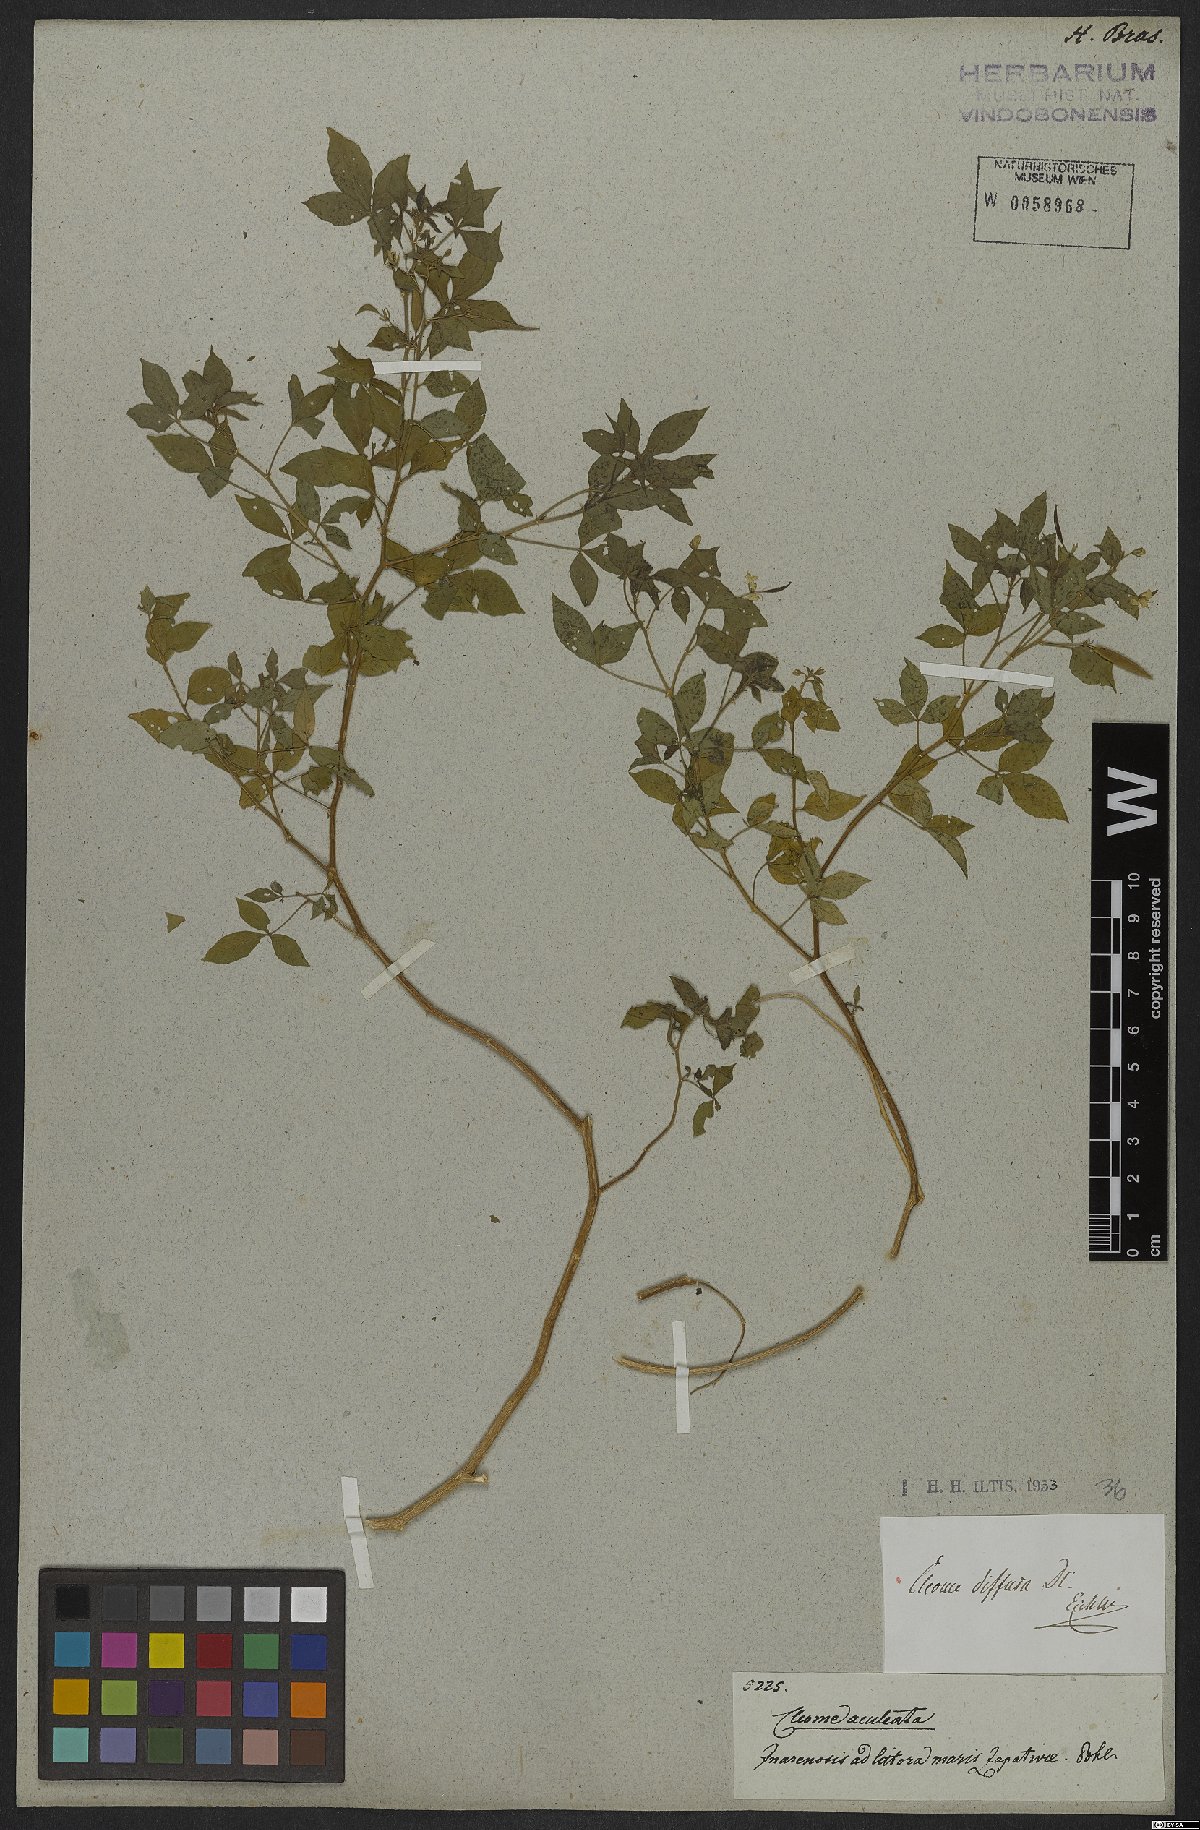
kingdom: Plantae
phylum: Tracheophyta
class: Magnoliopsida
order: Brassicales
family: Cleomaceae
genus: Tarenaya
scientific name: Tarenaya diffusa
